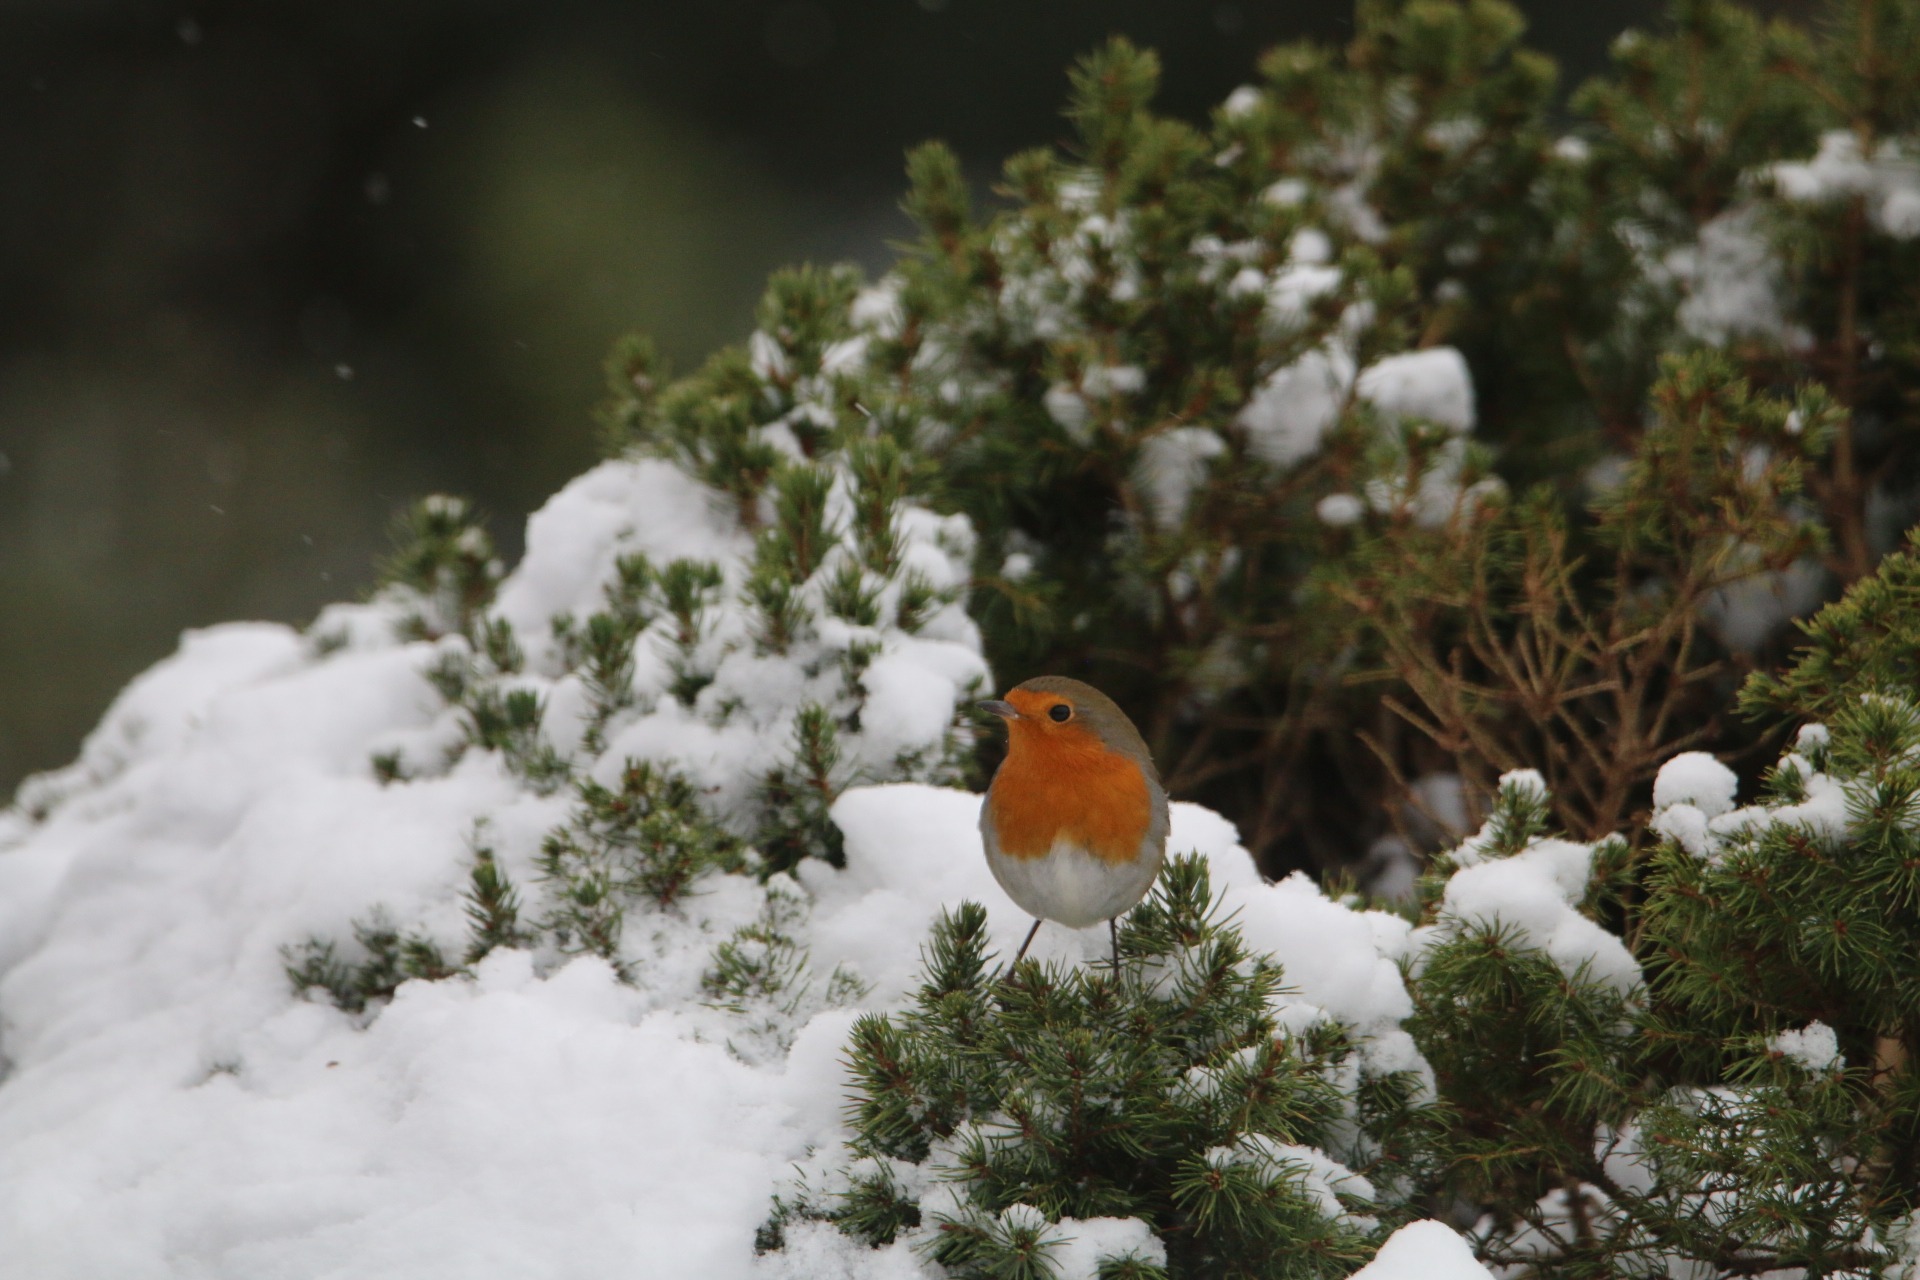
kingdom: Animalia
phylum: Chordata
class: Aves
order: Passeriformes
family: Muscicapidae
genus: Erithacus
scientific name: Erithacus rubecula
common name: Rødhals/rødkælk
